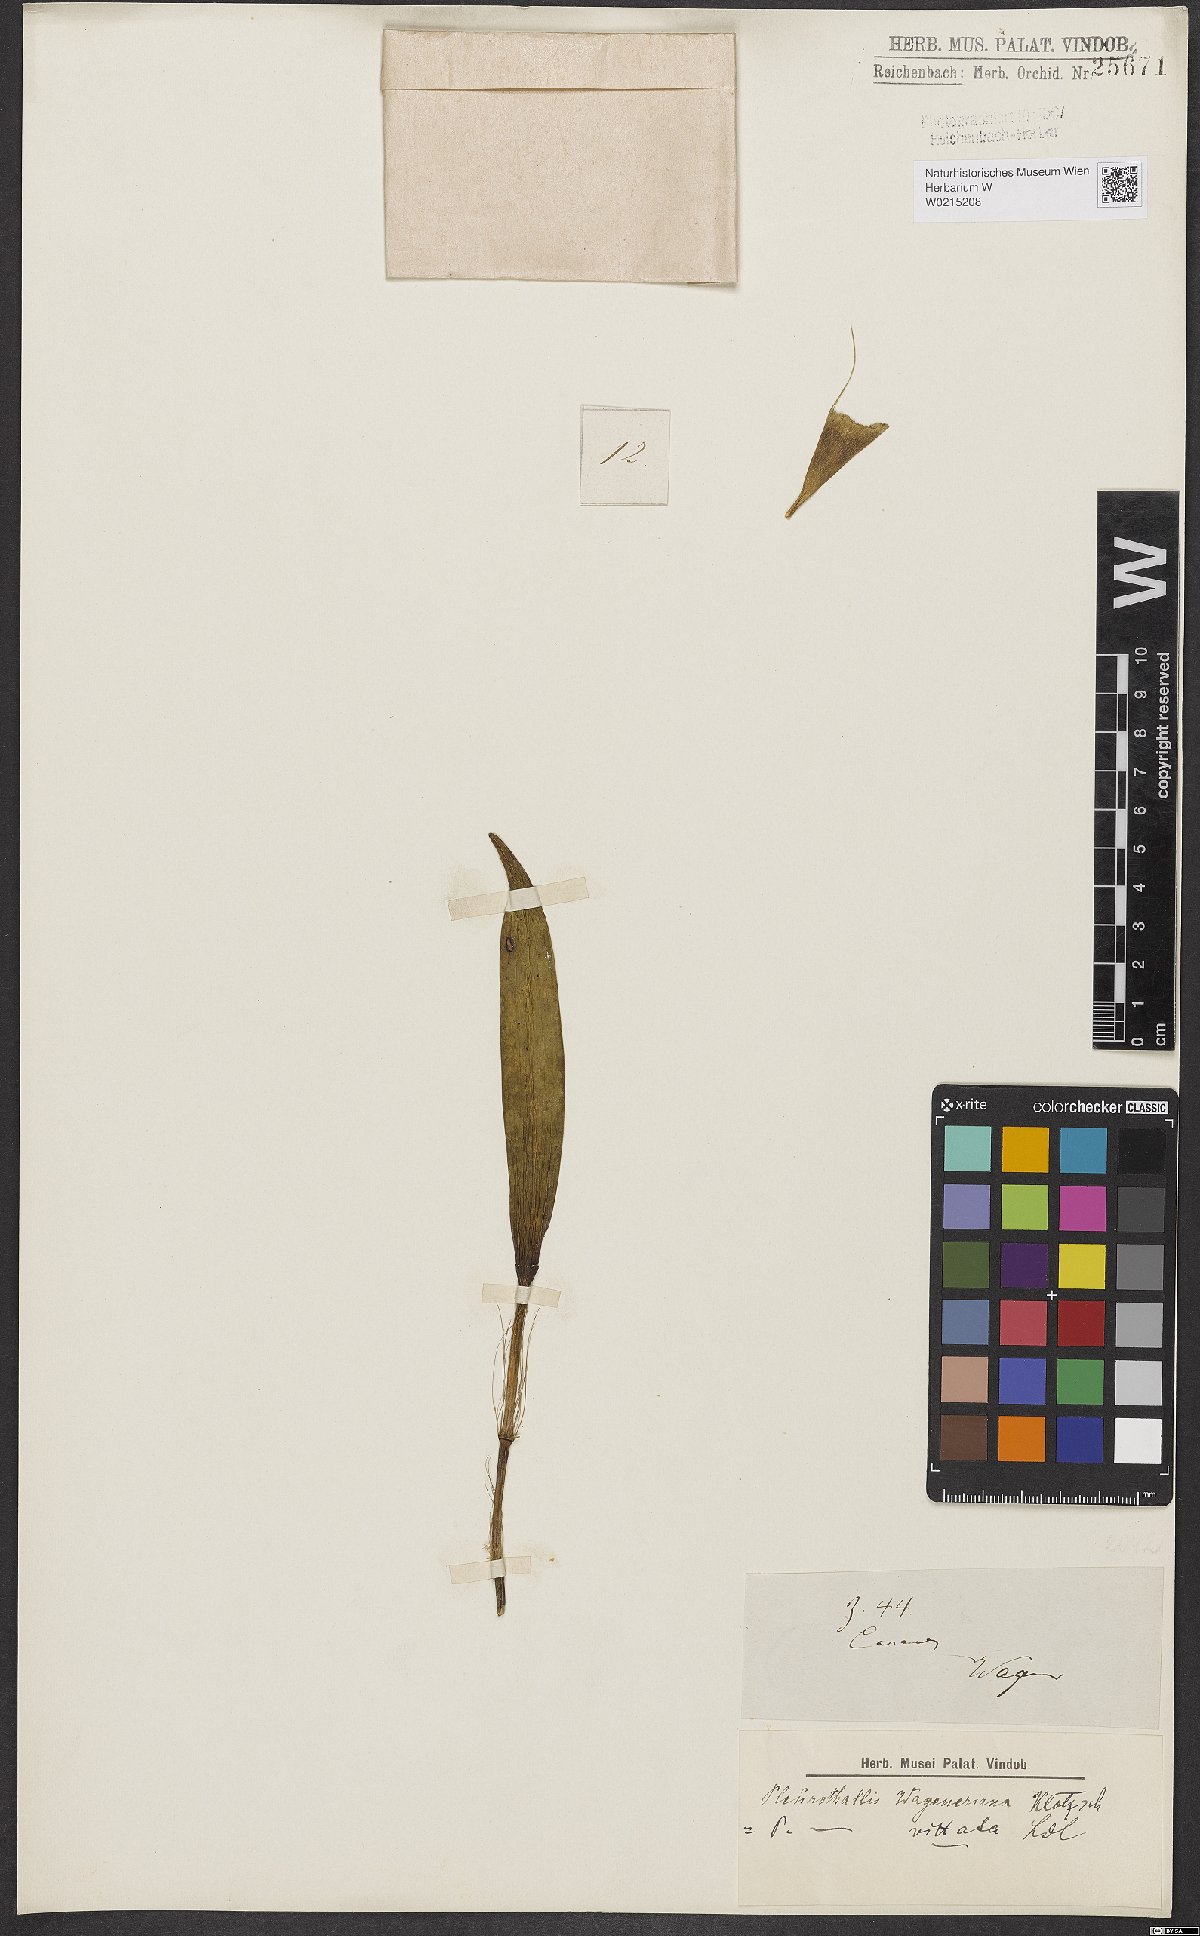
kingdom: Plantae
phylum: Tracheophyta
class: Liliopsida
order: Asparagales
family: Orchidaceae
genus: Pleurothallis
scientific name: Pleurothallis
